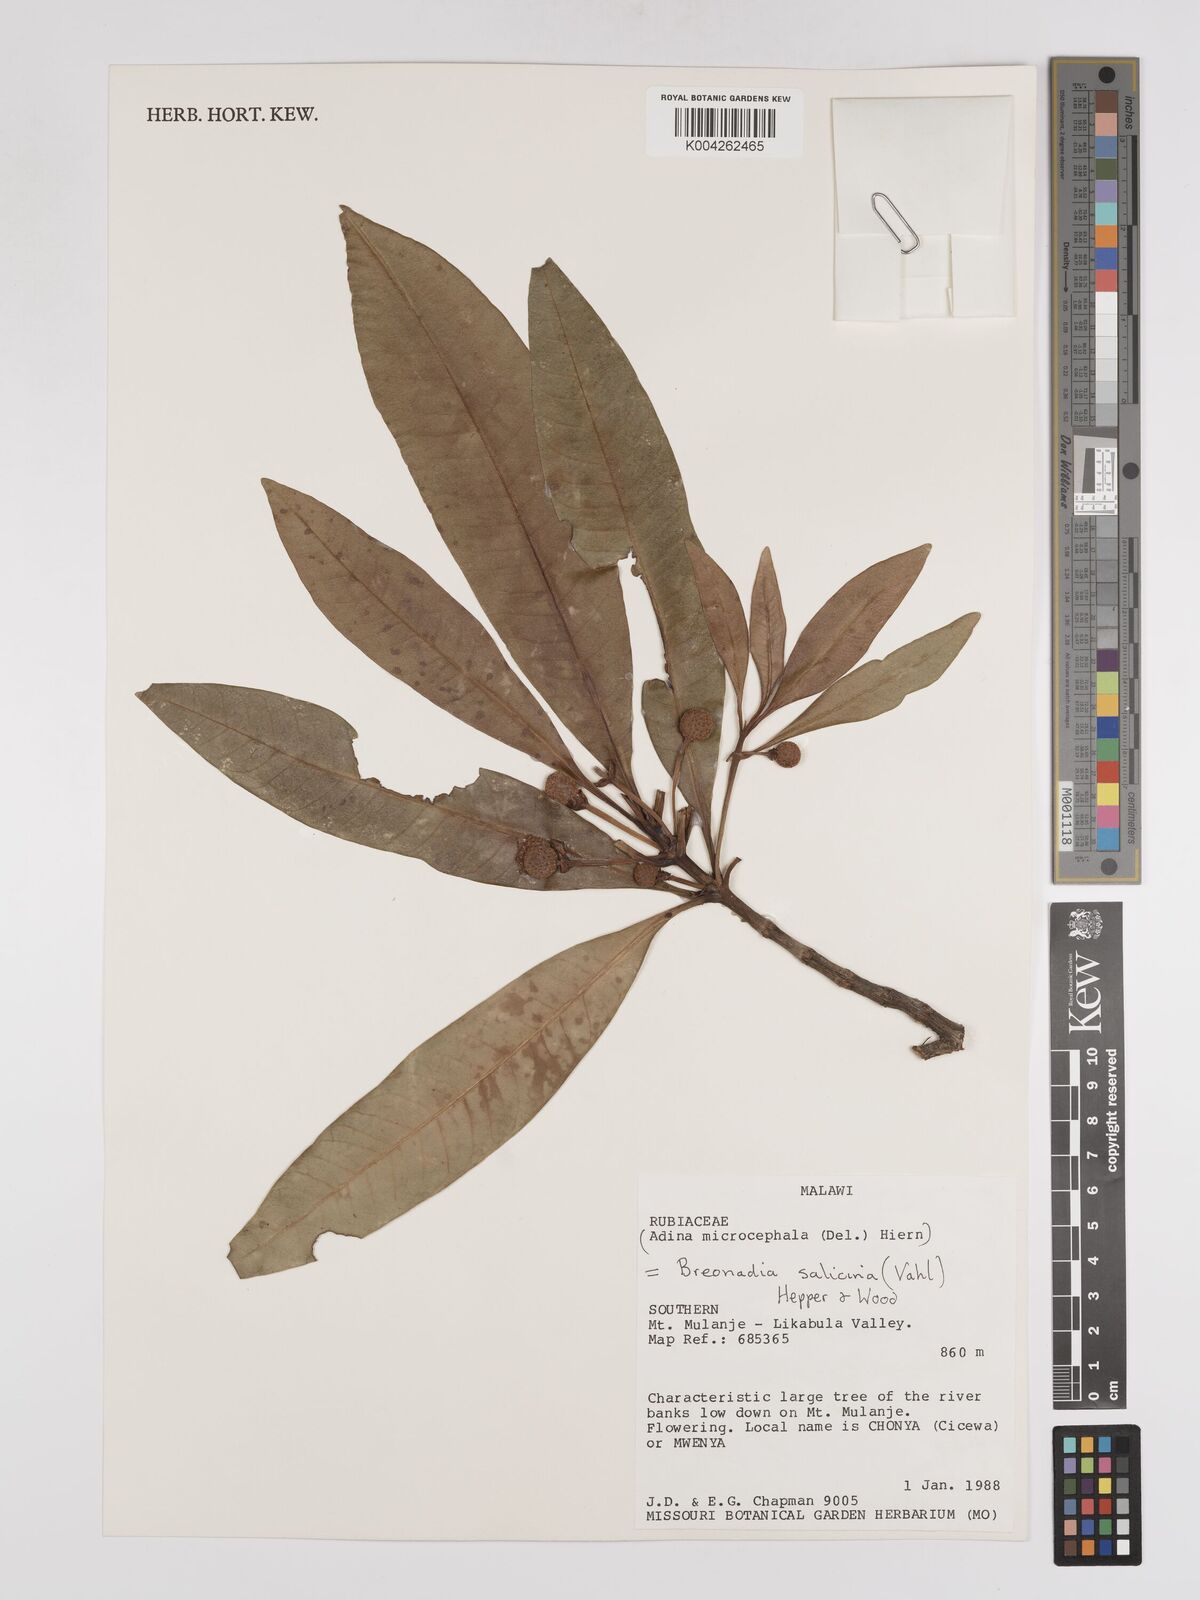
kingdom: Plantae
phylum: Tracheophyta
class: Magnoliopsida
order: Gentianales
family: Rubiaceae
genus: Breonadia
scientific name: Breonadia salicina
